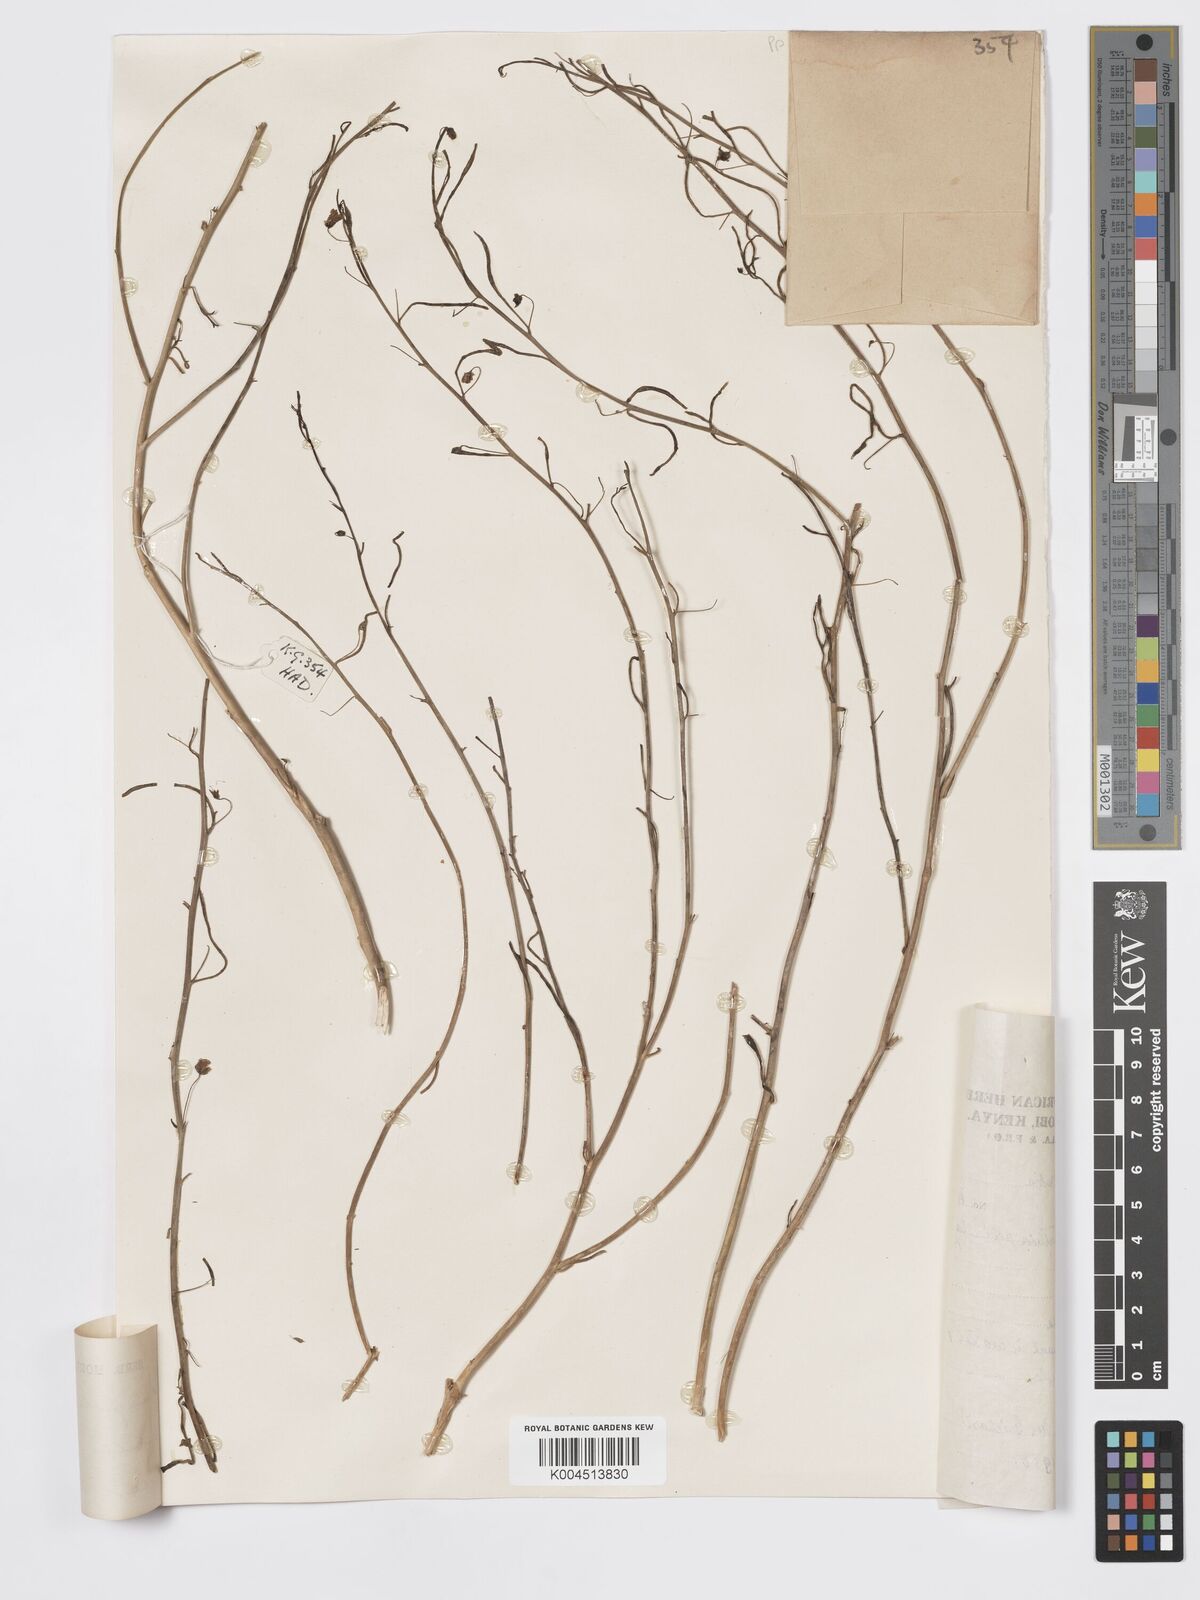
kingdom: Plantae
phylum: Tracheophyta
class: Magnoliopsida
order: Lamiales
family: Plantaginaceae
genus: Schweinfurthia
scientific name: Schweinfurthia pedicellata
